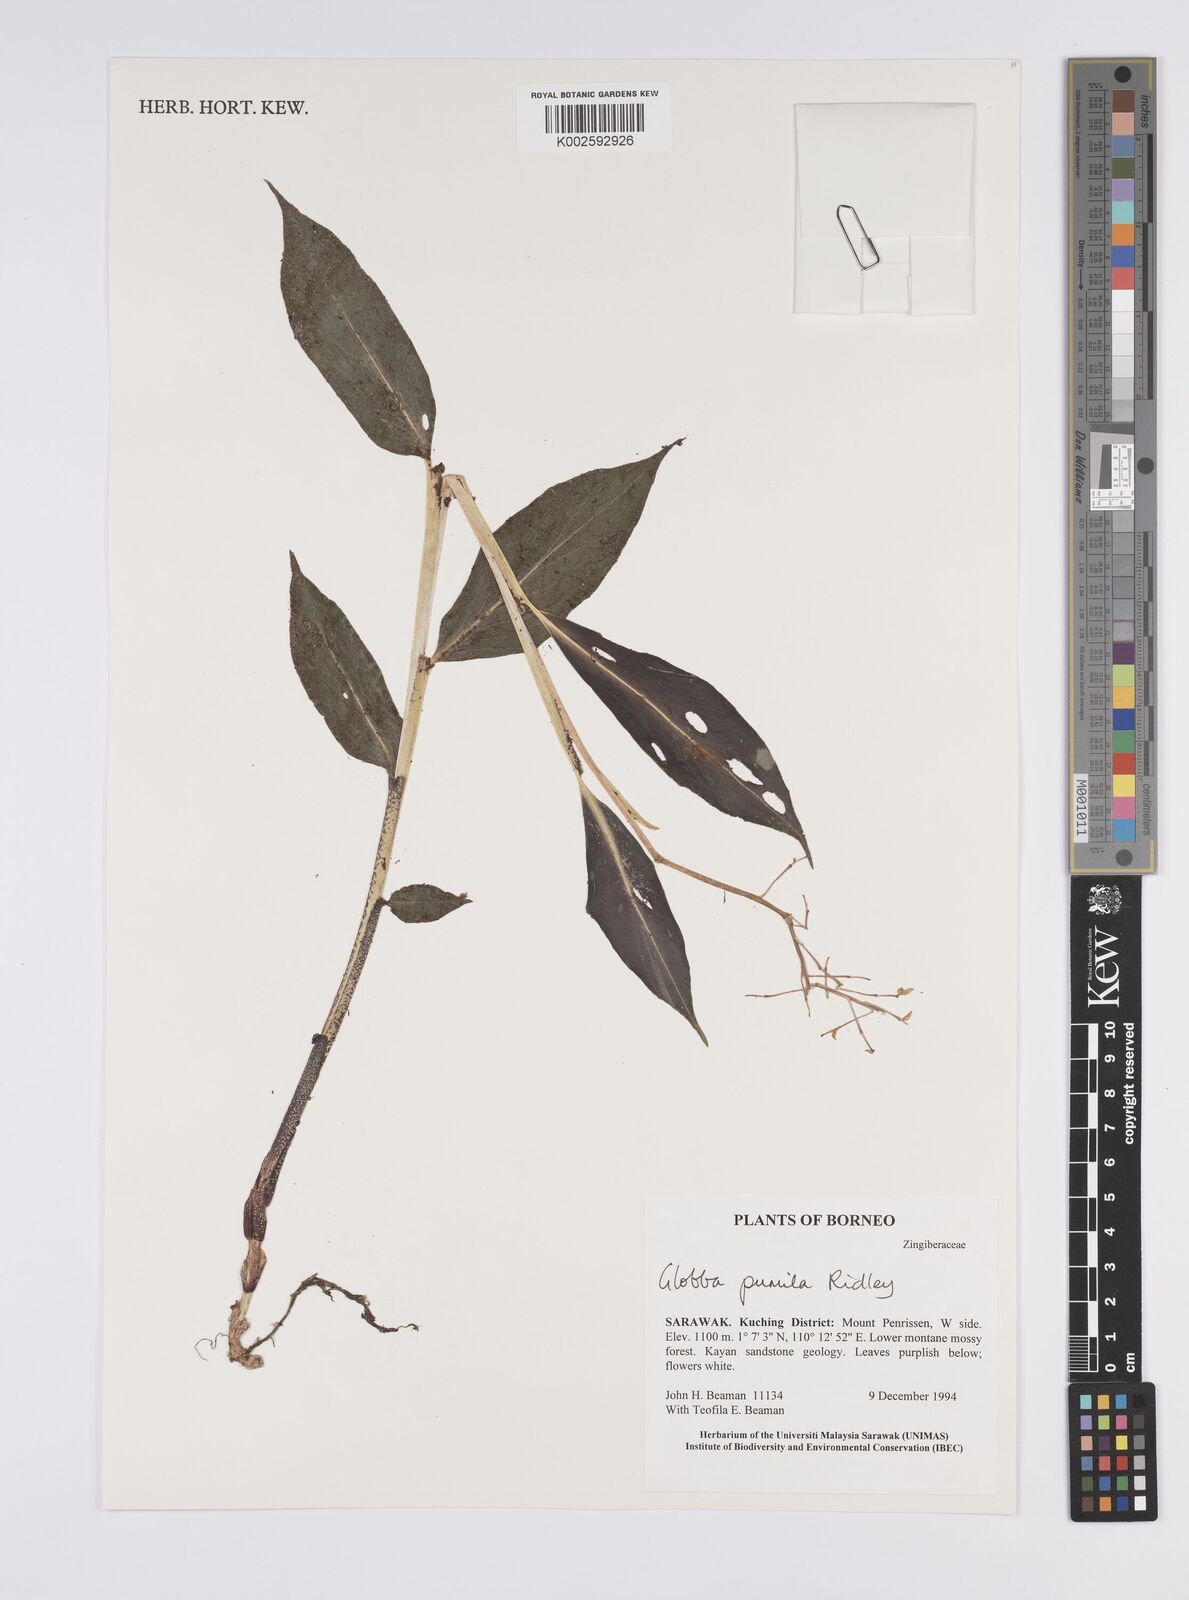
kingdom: Plantae
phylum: Tracheophyta
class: Liliopsida
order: Zingiberales
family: Zingiberaceae
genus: Globba
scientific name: Globba pumila
